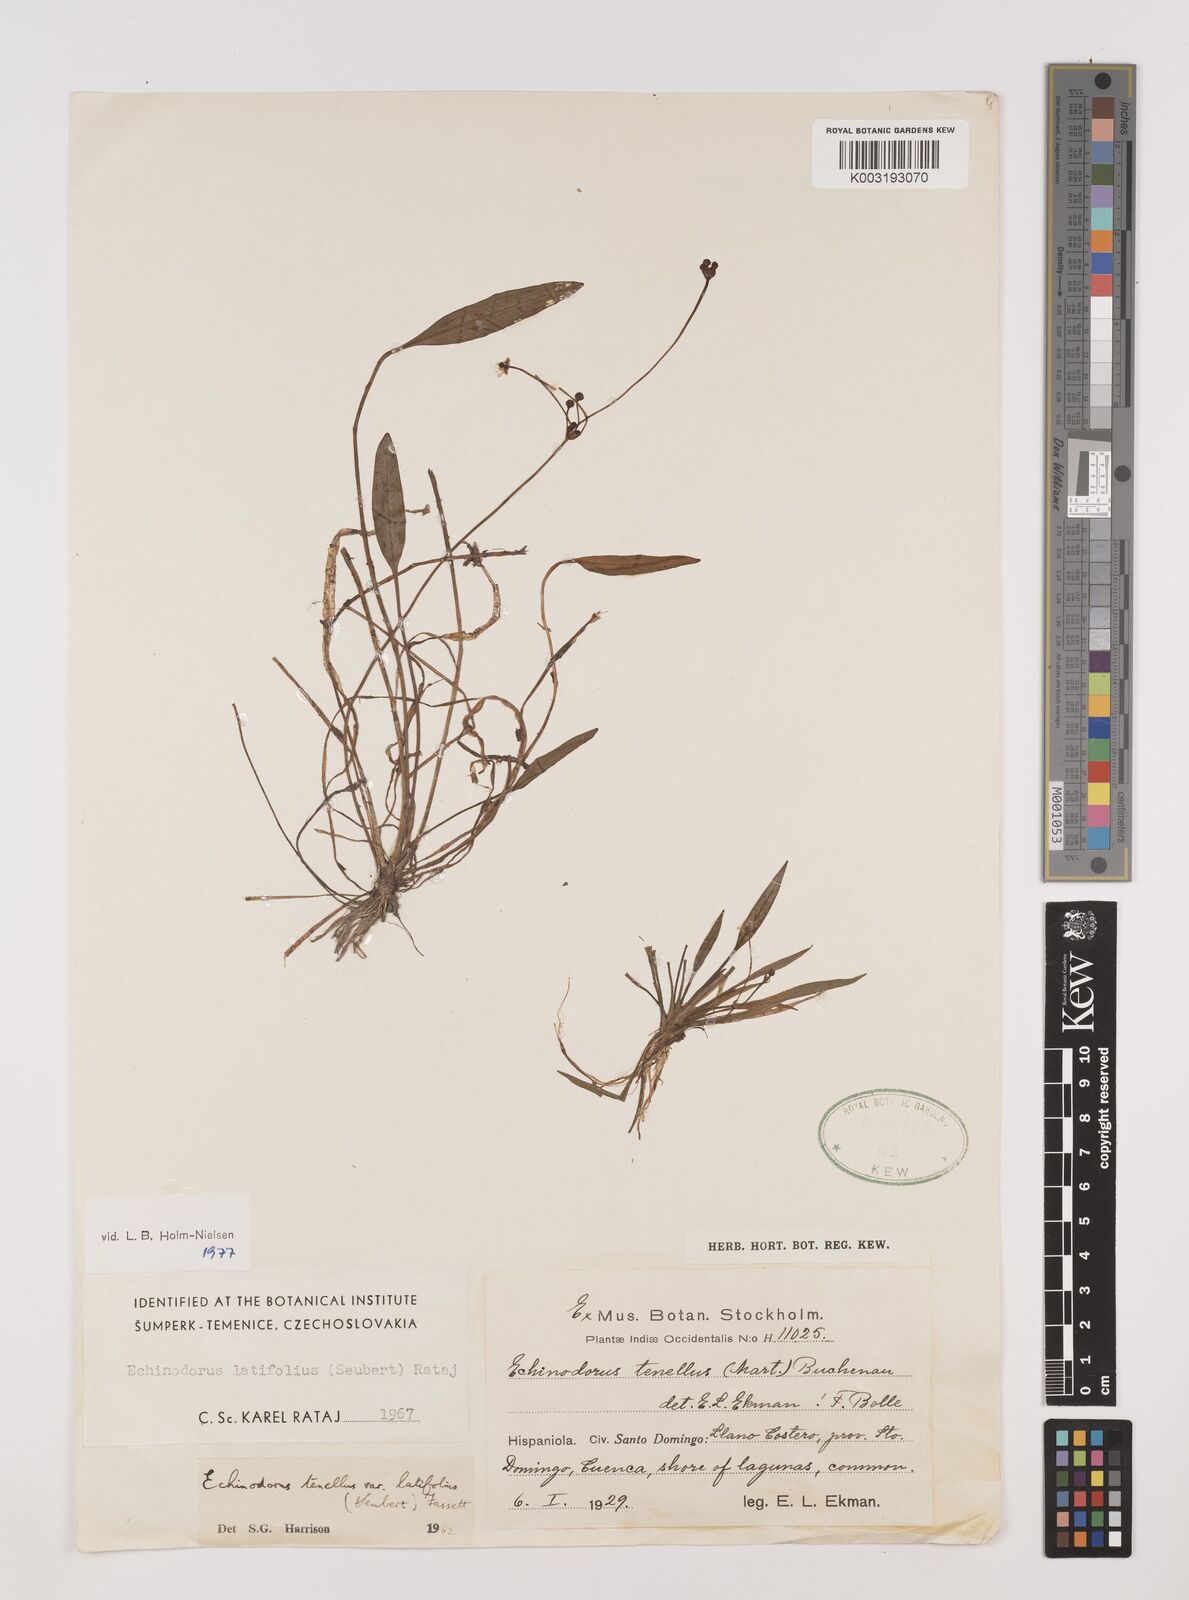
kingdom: Plantae
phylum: Tracheophyta
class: Liliopsida
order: Alismatales
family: Alismataceae
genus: Helanthium
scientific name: Helanthium bolivianum
